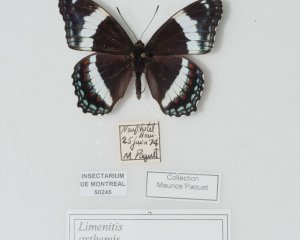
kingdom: Animalia
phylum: Arthropoda
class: Insecta
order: Lepidoptera
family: Nymphalidae
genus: Limenitis
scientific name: Limenitis astyanax
